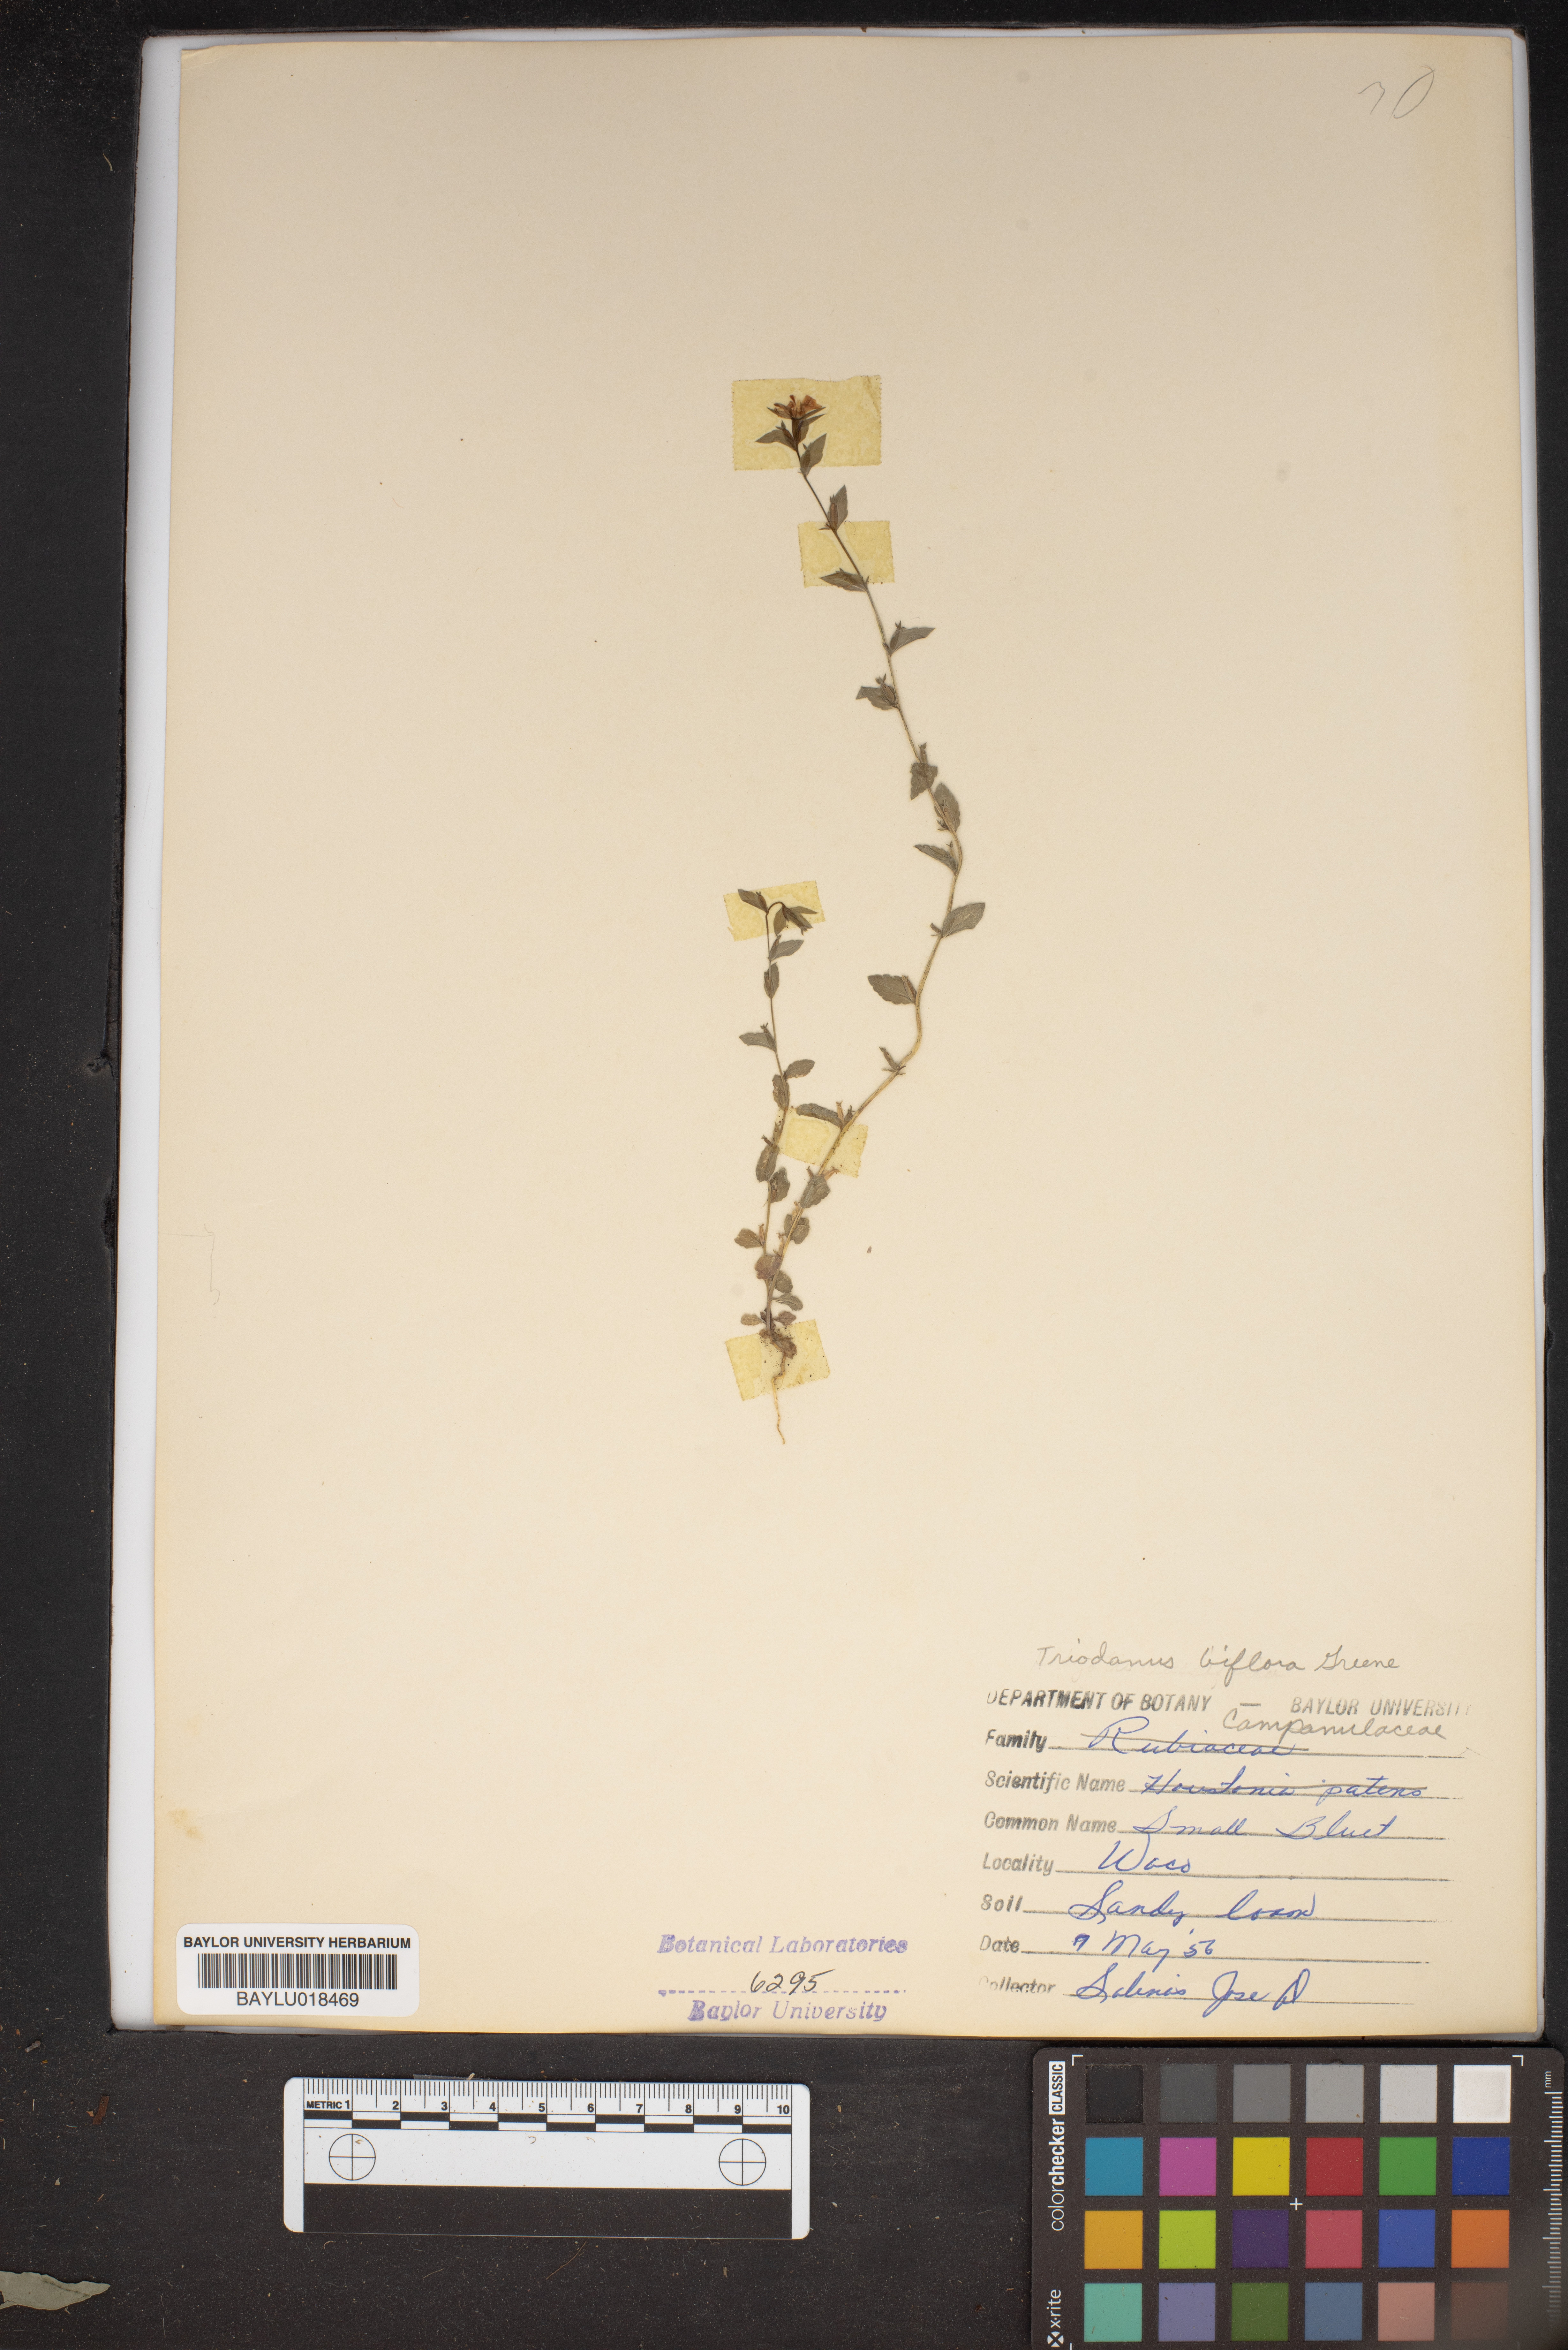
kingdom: Plantae
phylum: Tracheophyta
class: Magnoliopsida
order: Asterales
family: Campanulaceae
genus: Triodanis
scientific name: Triodanis perfoliata
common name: Clasping venus' looking-glass
